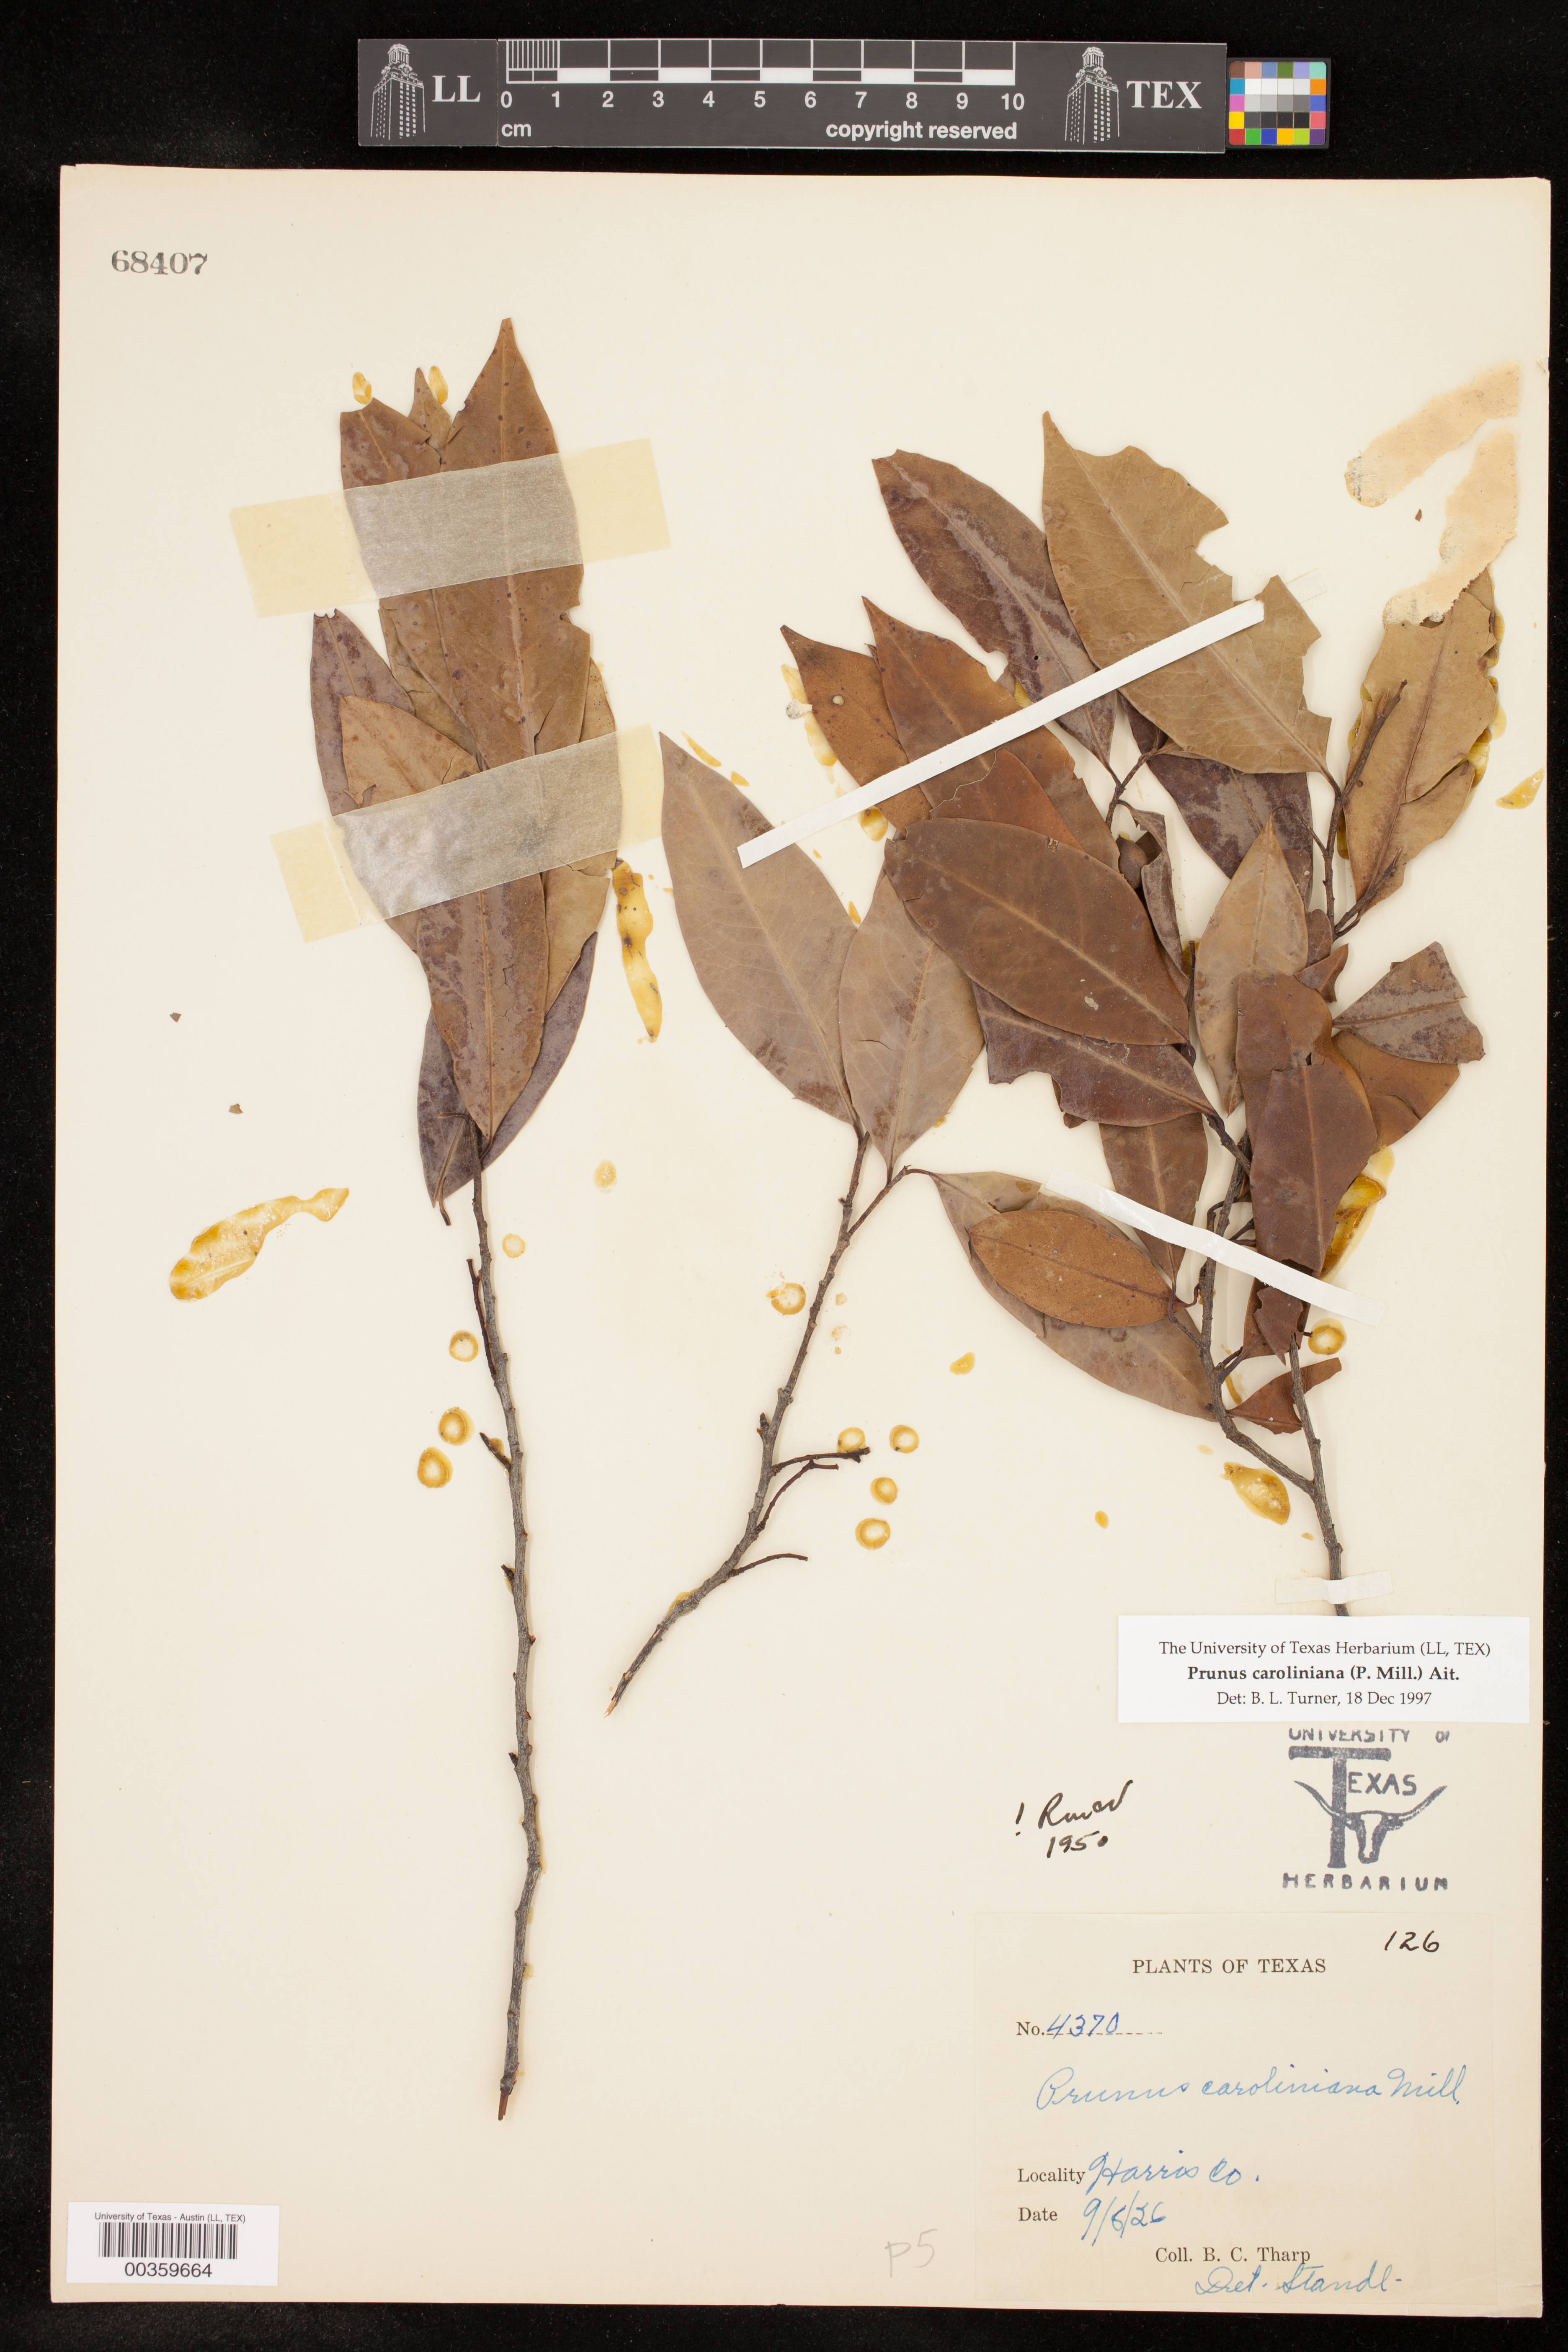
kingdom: Plantae
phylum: Tracheophyta
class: Magnoliopsida
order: Rosales
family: Rosaceae
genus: Prunus
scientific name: Prunus caroliniana
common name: Carolina laurel cherry
